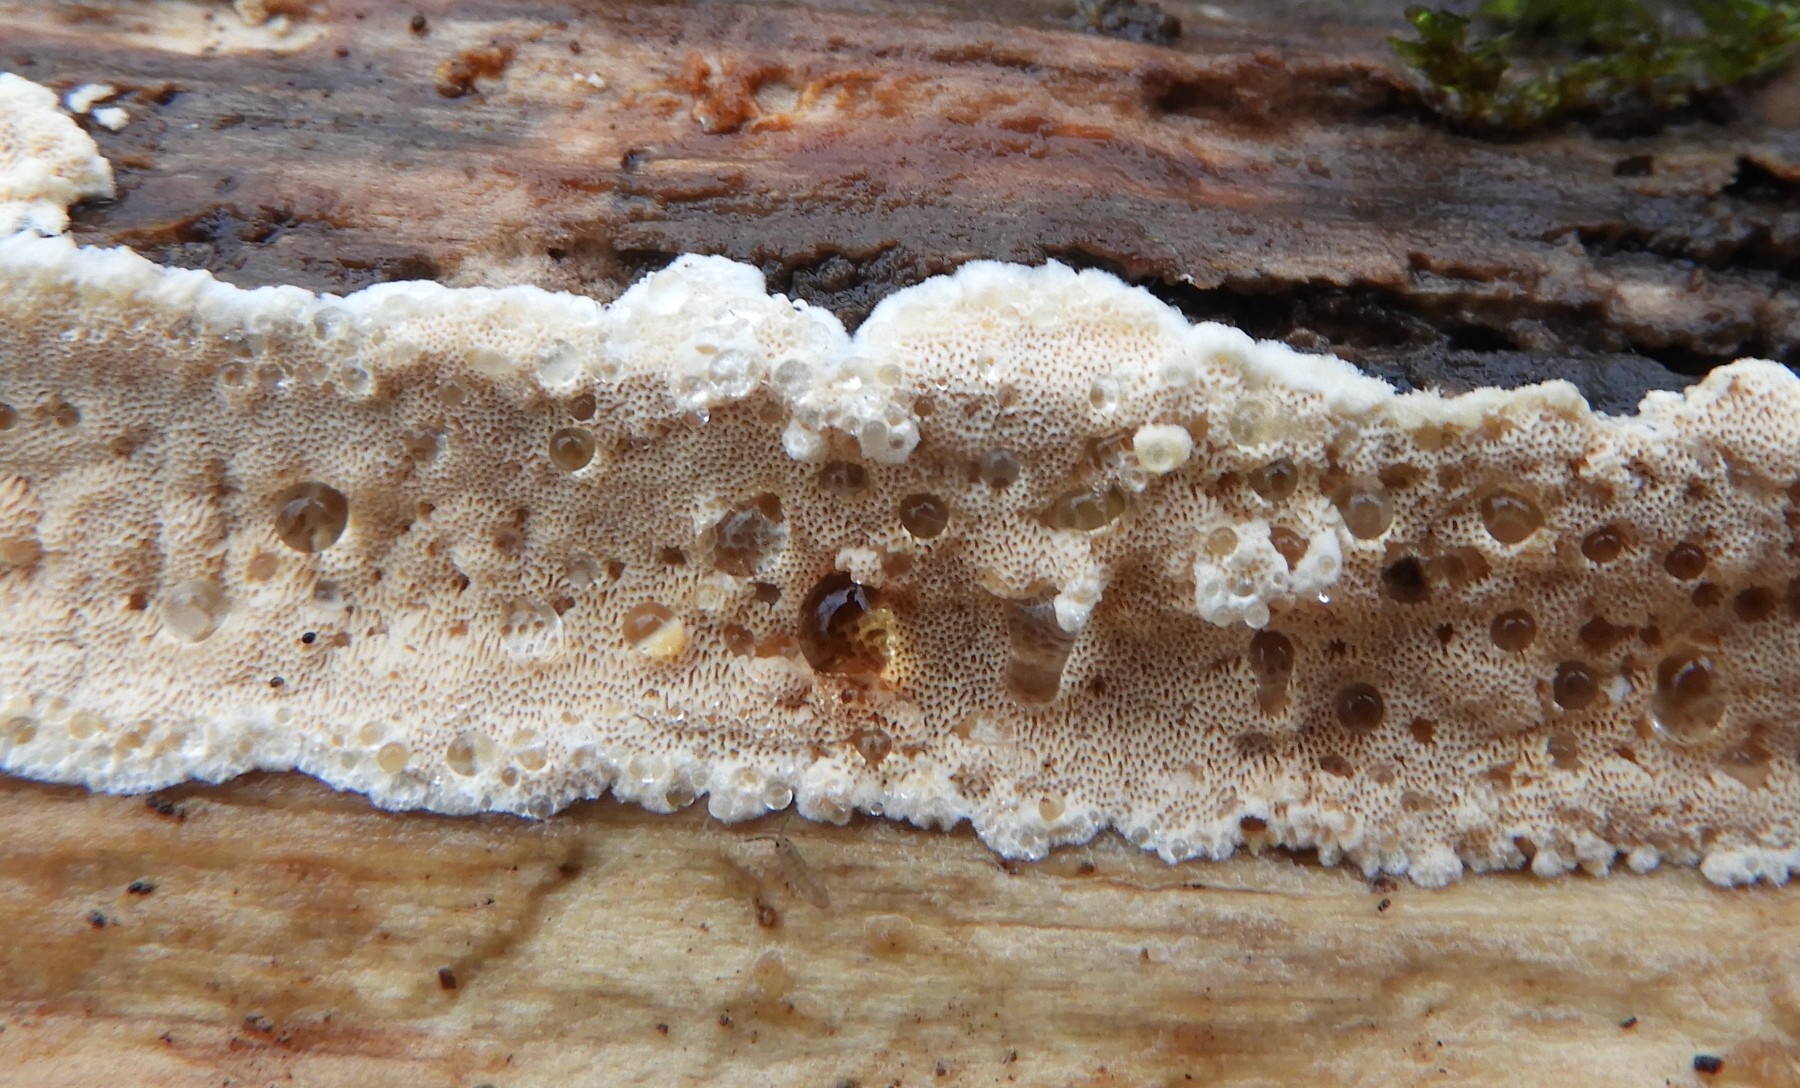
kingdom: Fungi
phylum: Basidiomycota
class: Agaricomycetes
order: Polyporales
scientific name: Polyporales
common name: poresvampordenen
